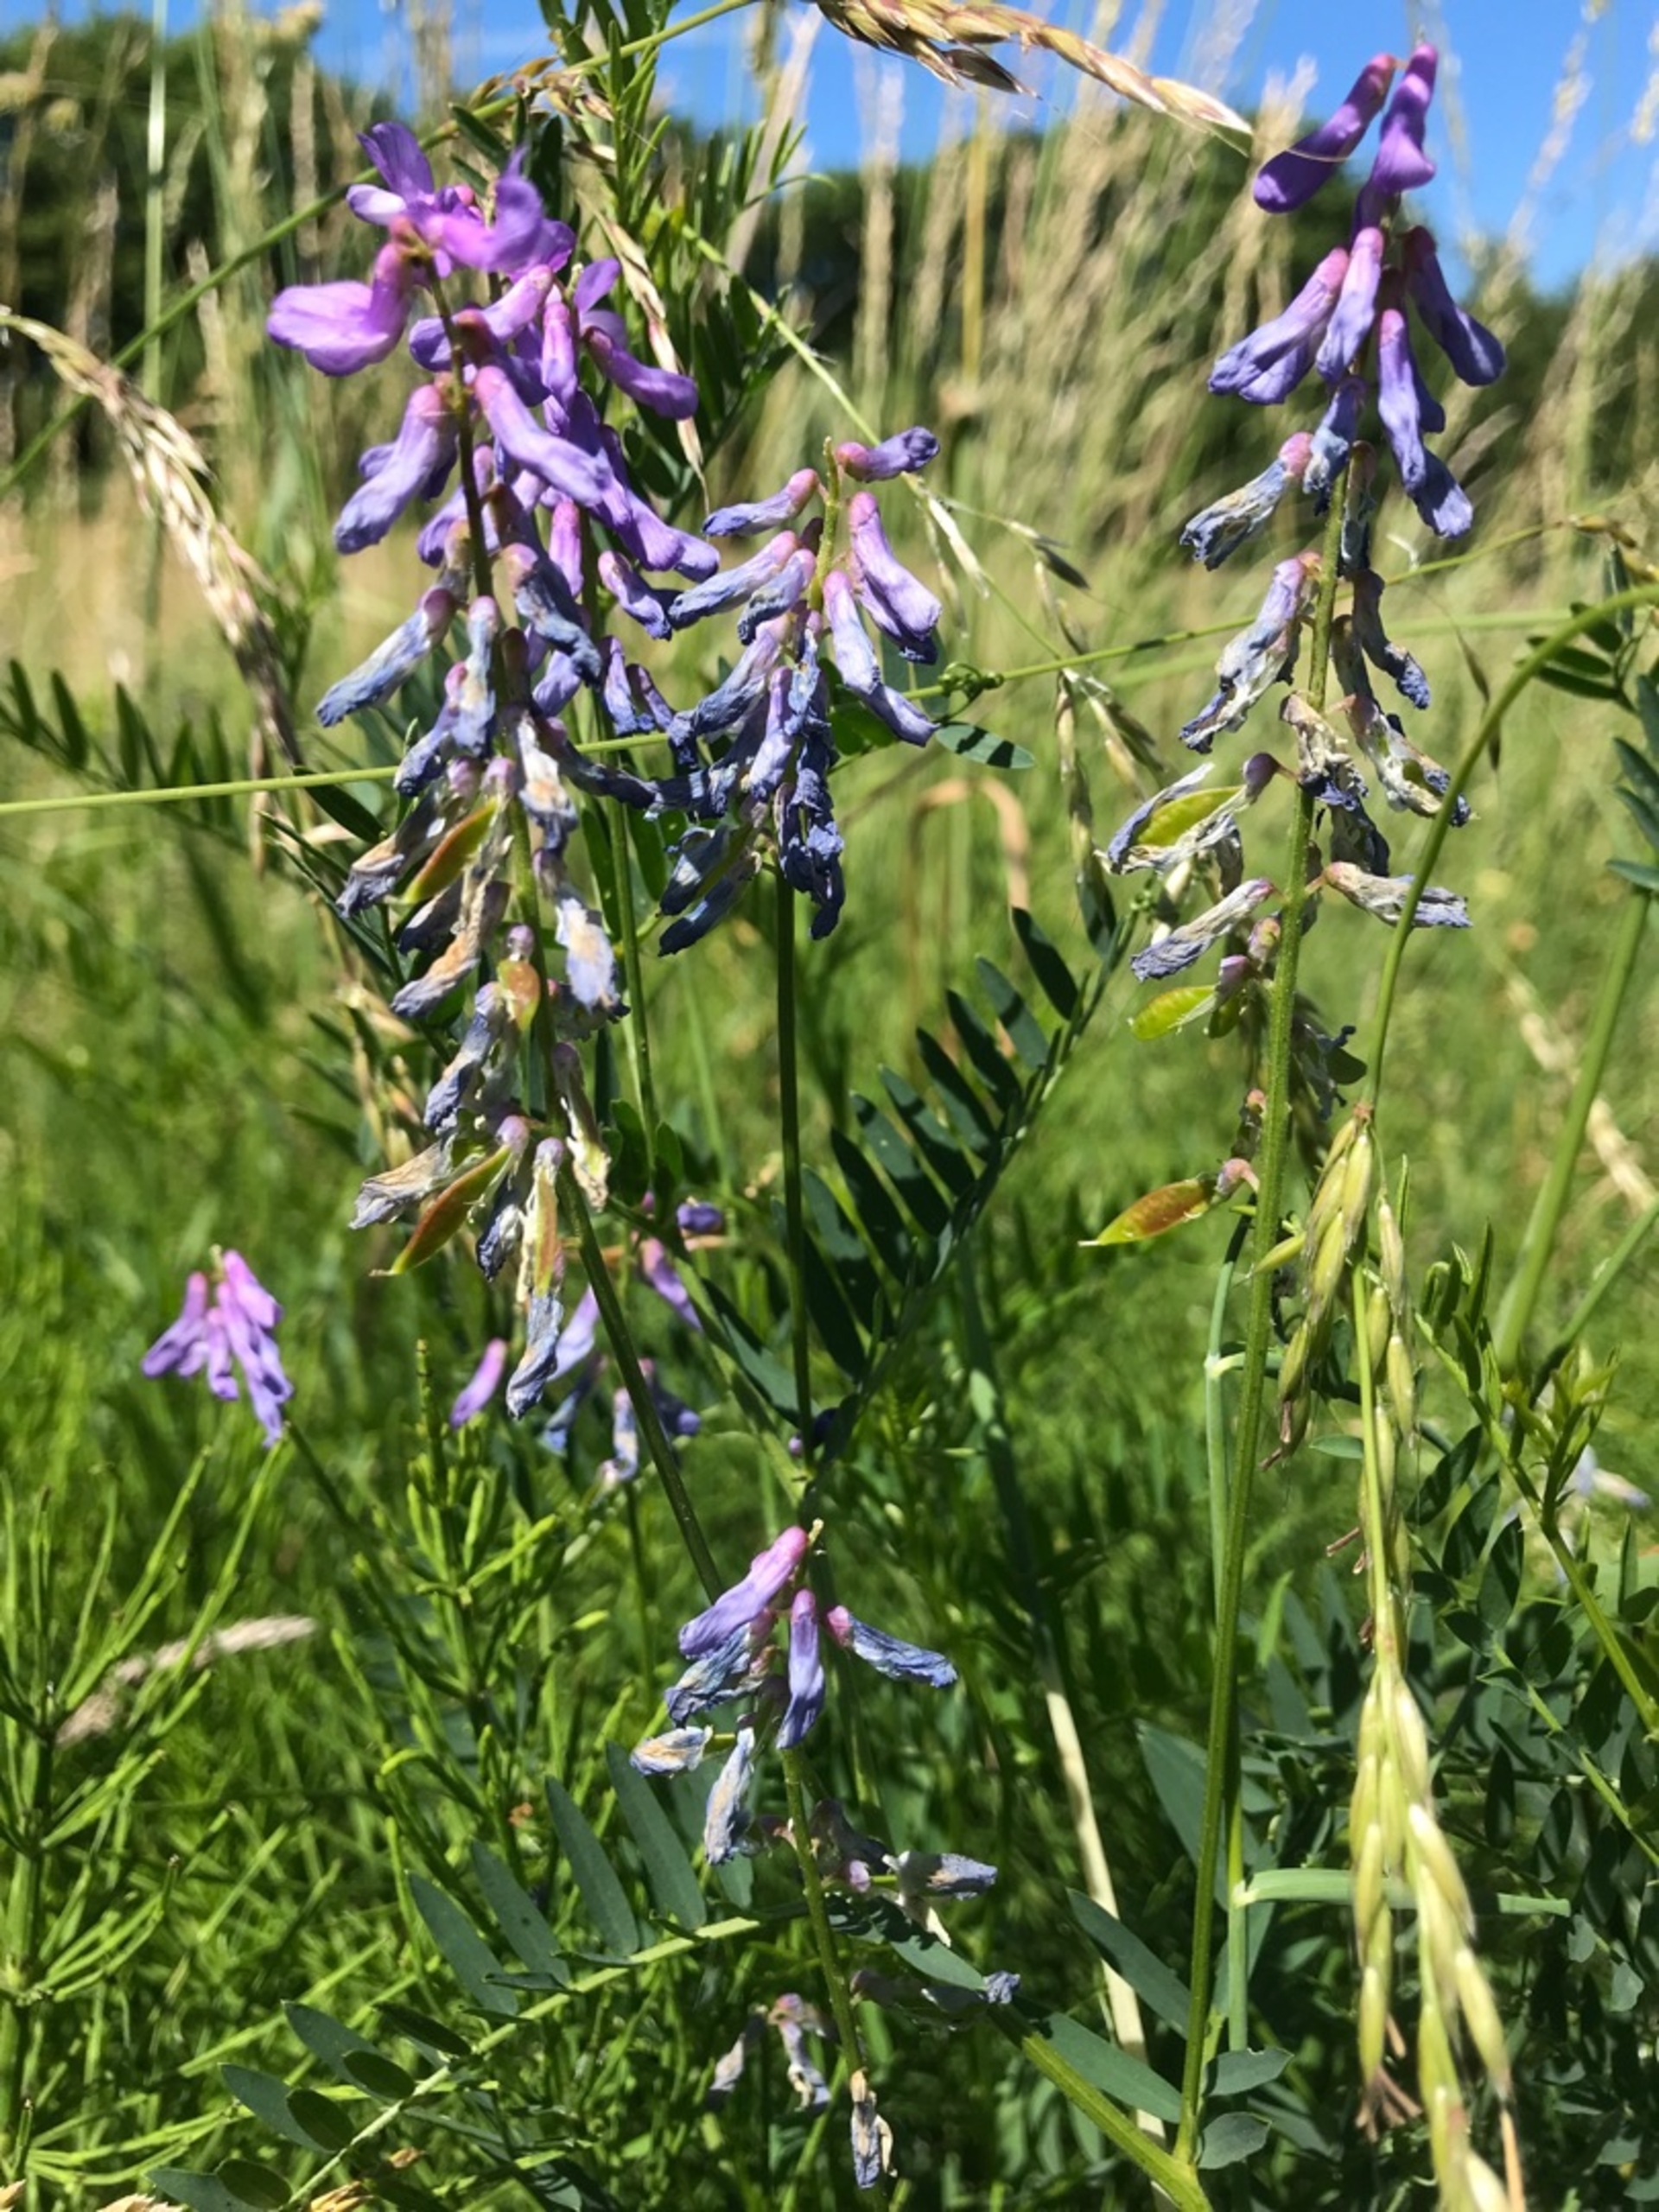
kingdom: Plantae
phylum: Tracheophyta
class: Magnoliopsida
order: Fabales
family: Fabaceae
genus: Vicia
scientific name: Vicia tenuifolia
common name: Langklaset vikke
